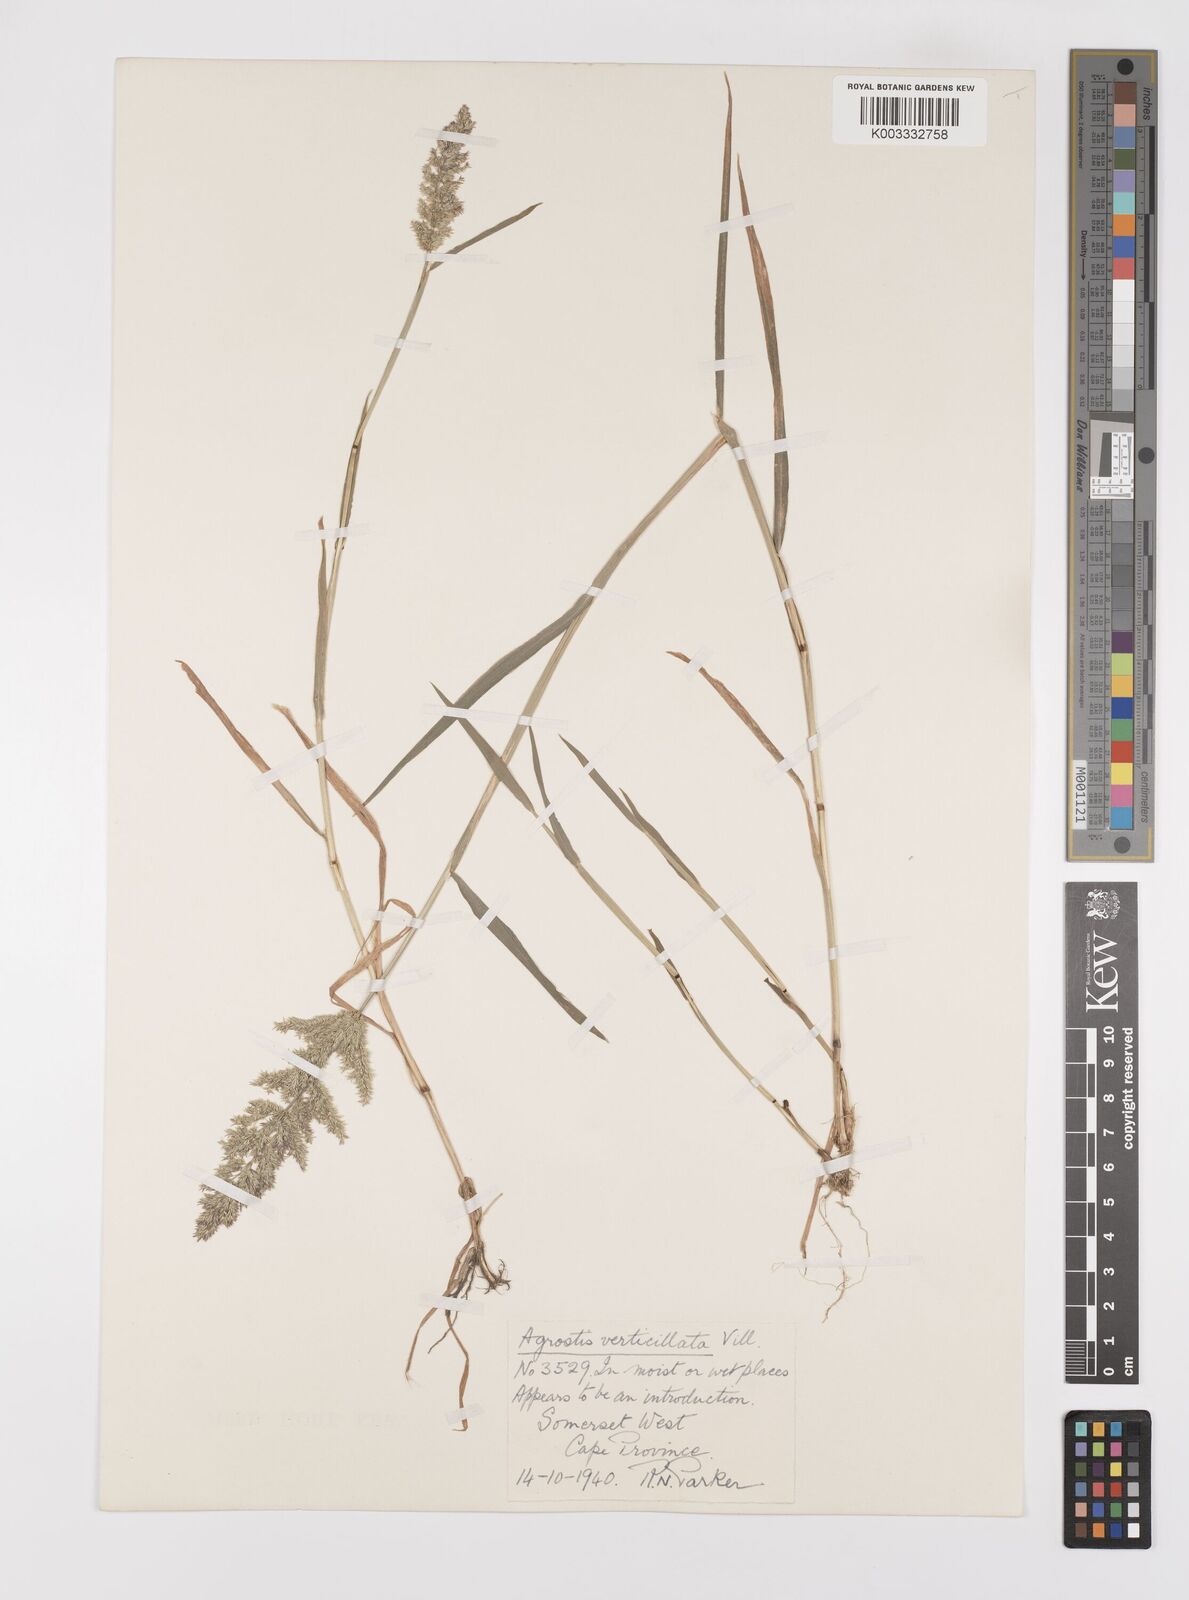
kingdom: Plantae
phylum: Tracheophyta
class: Liliopsida
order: Poales
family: Poaceae
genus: Polypogon
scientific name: Polypogon viridis
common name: Water bent
